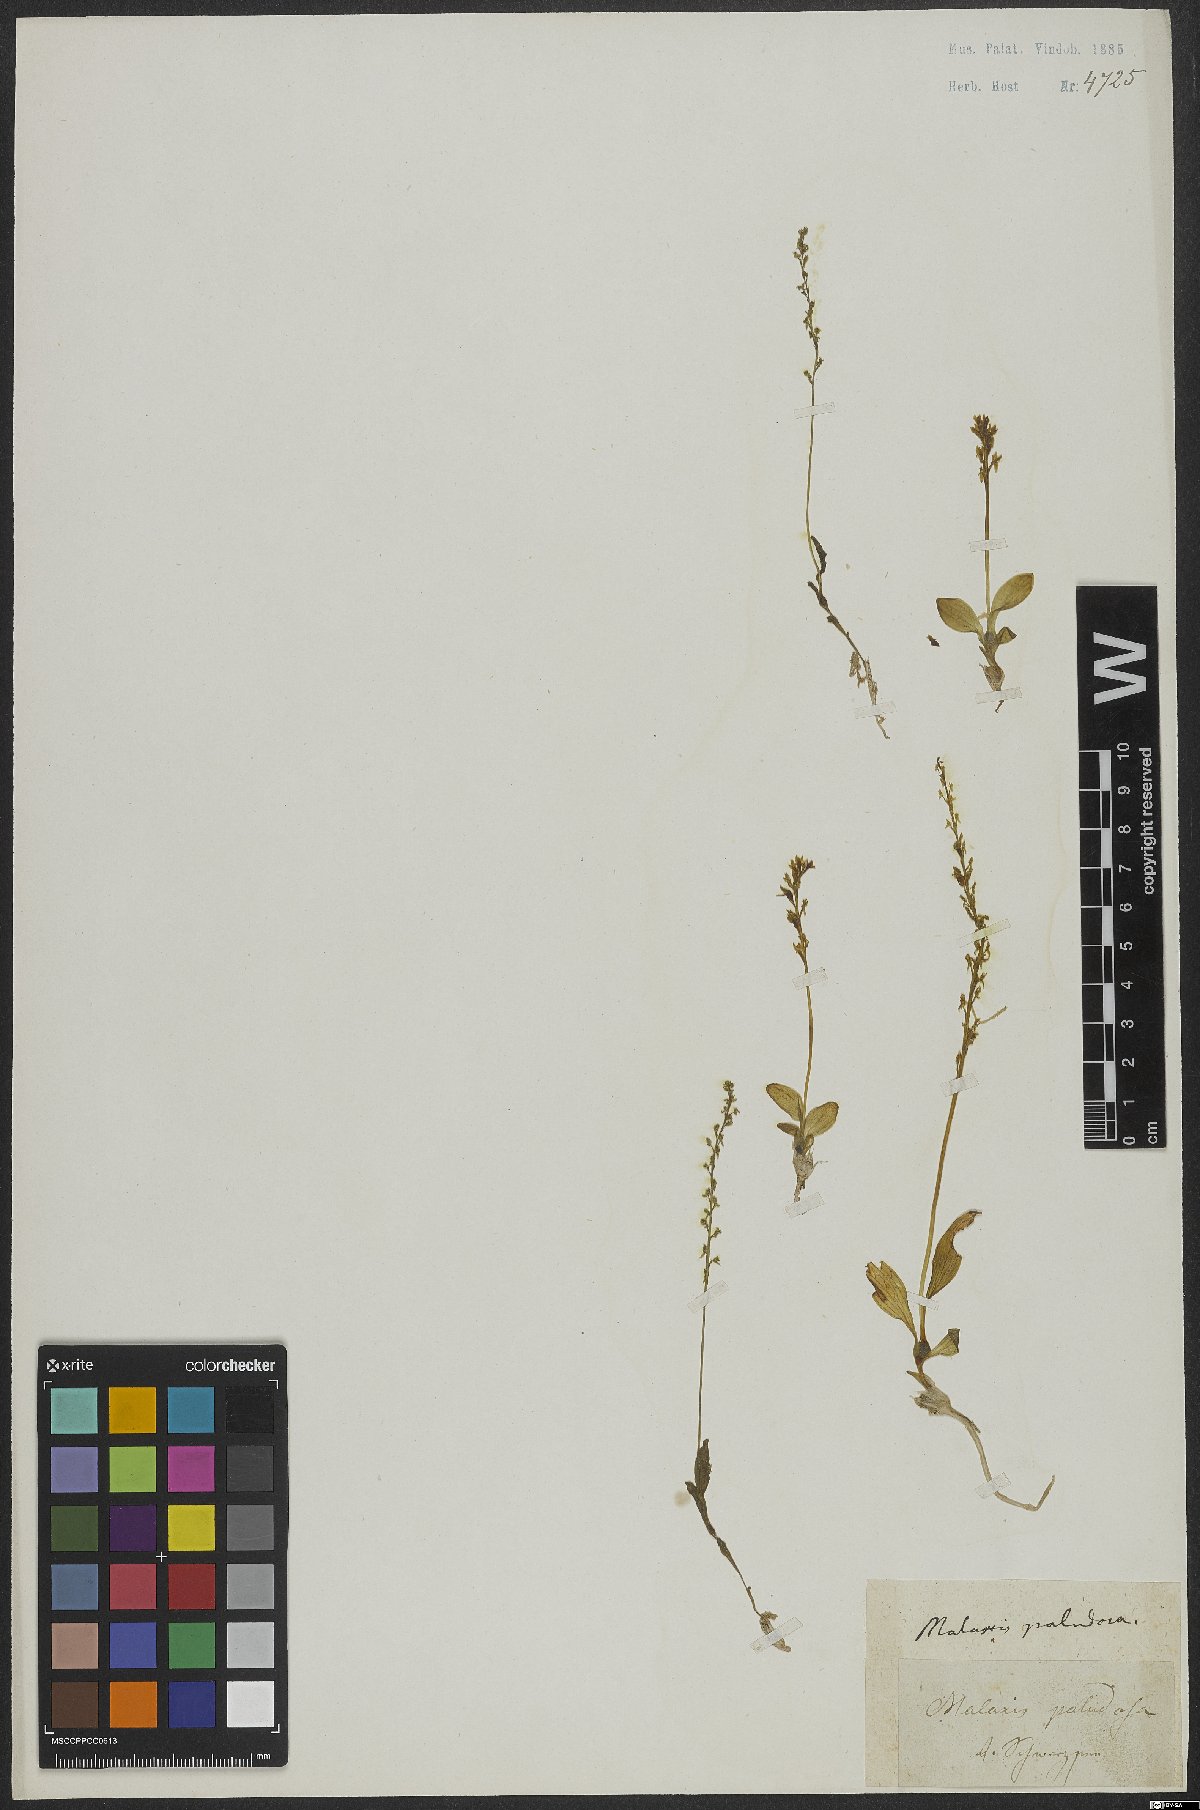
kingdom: Plantae
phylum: Tracheophyta
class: Liliopsida
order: Asparagales
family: Orchidaceae
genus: Hammarbya
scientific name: Hammarbya paludosa
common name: Bog orchid
